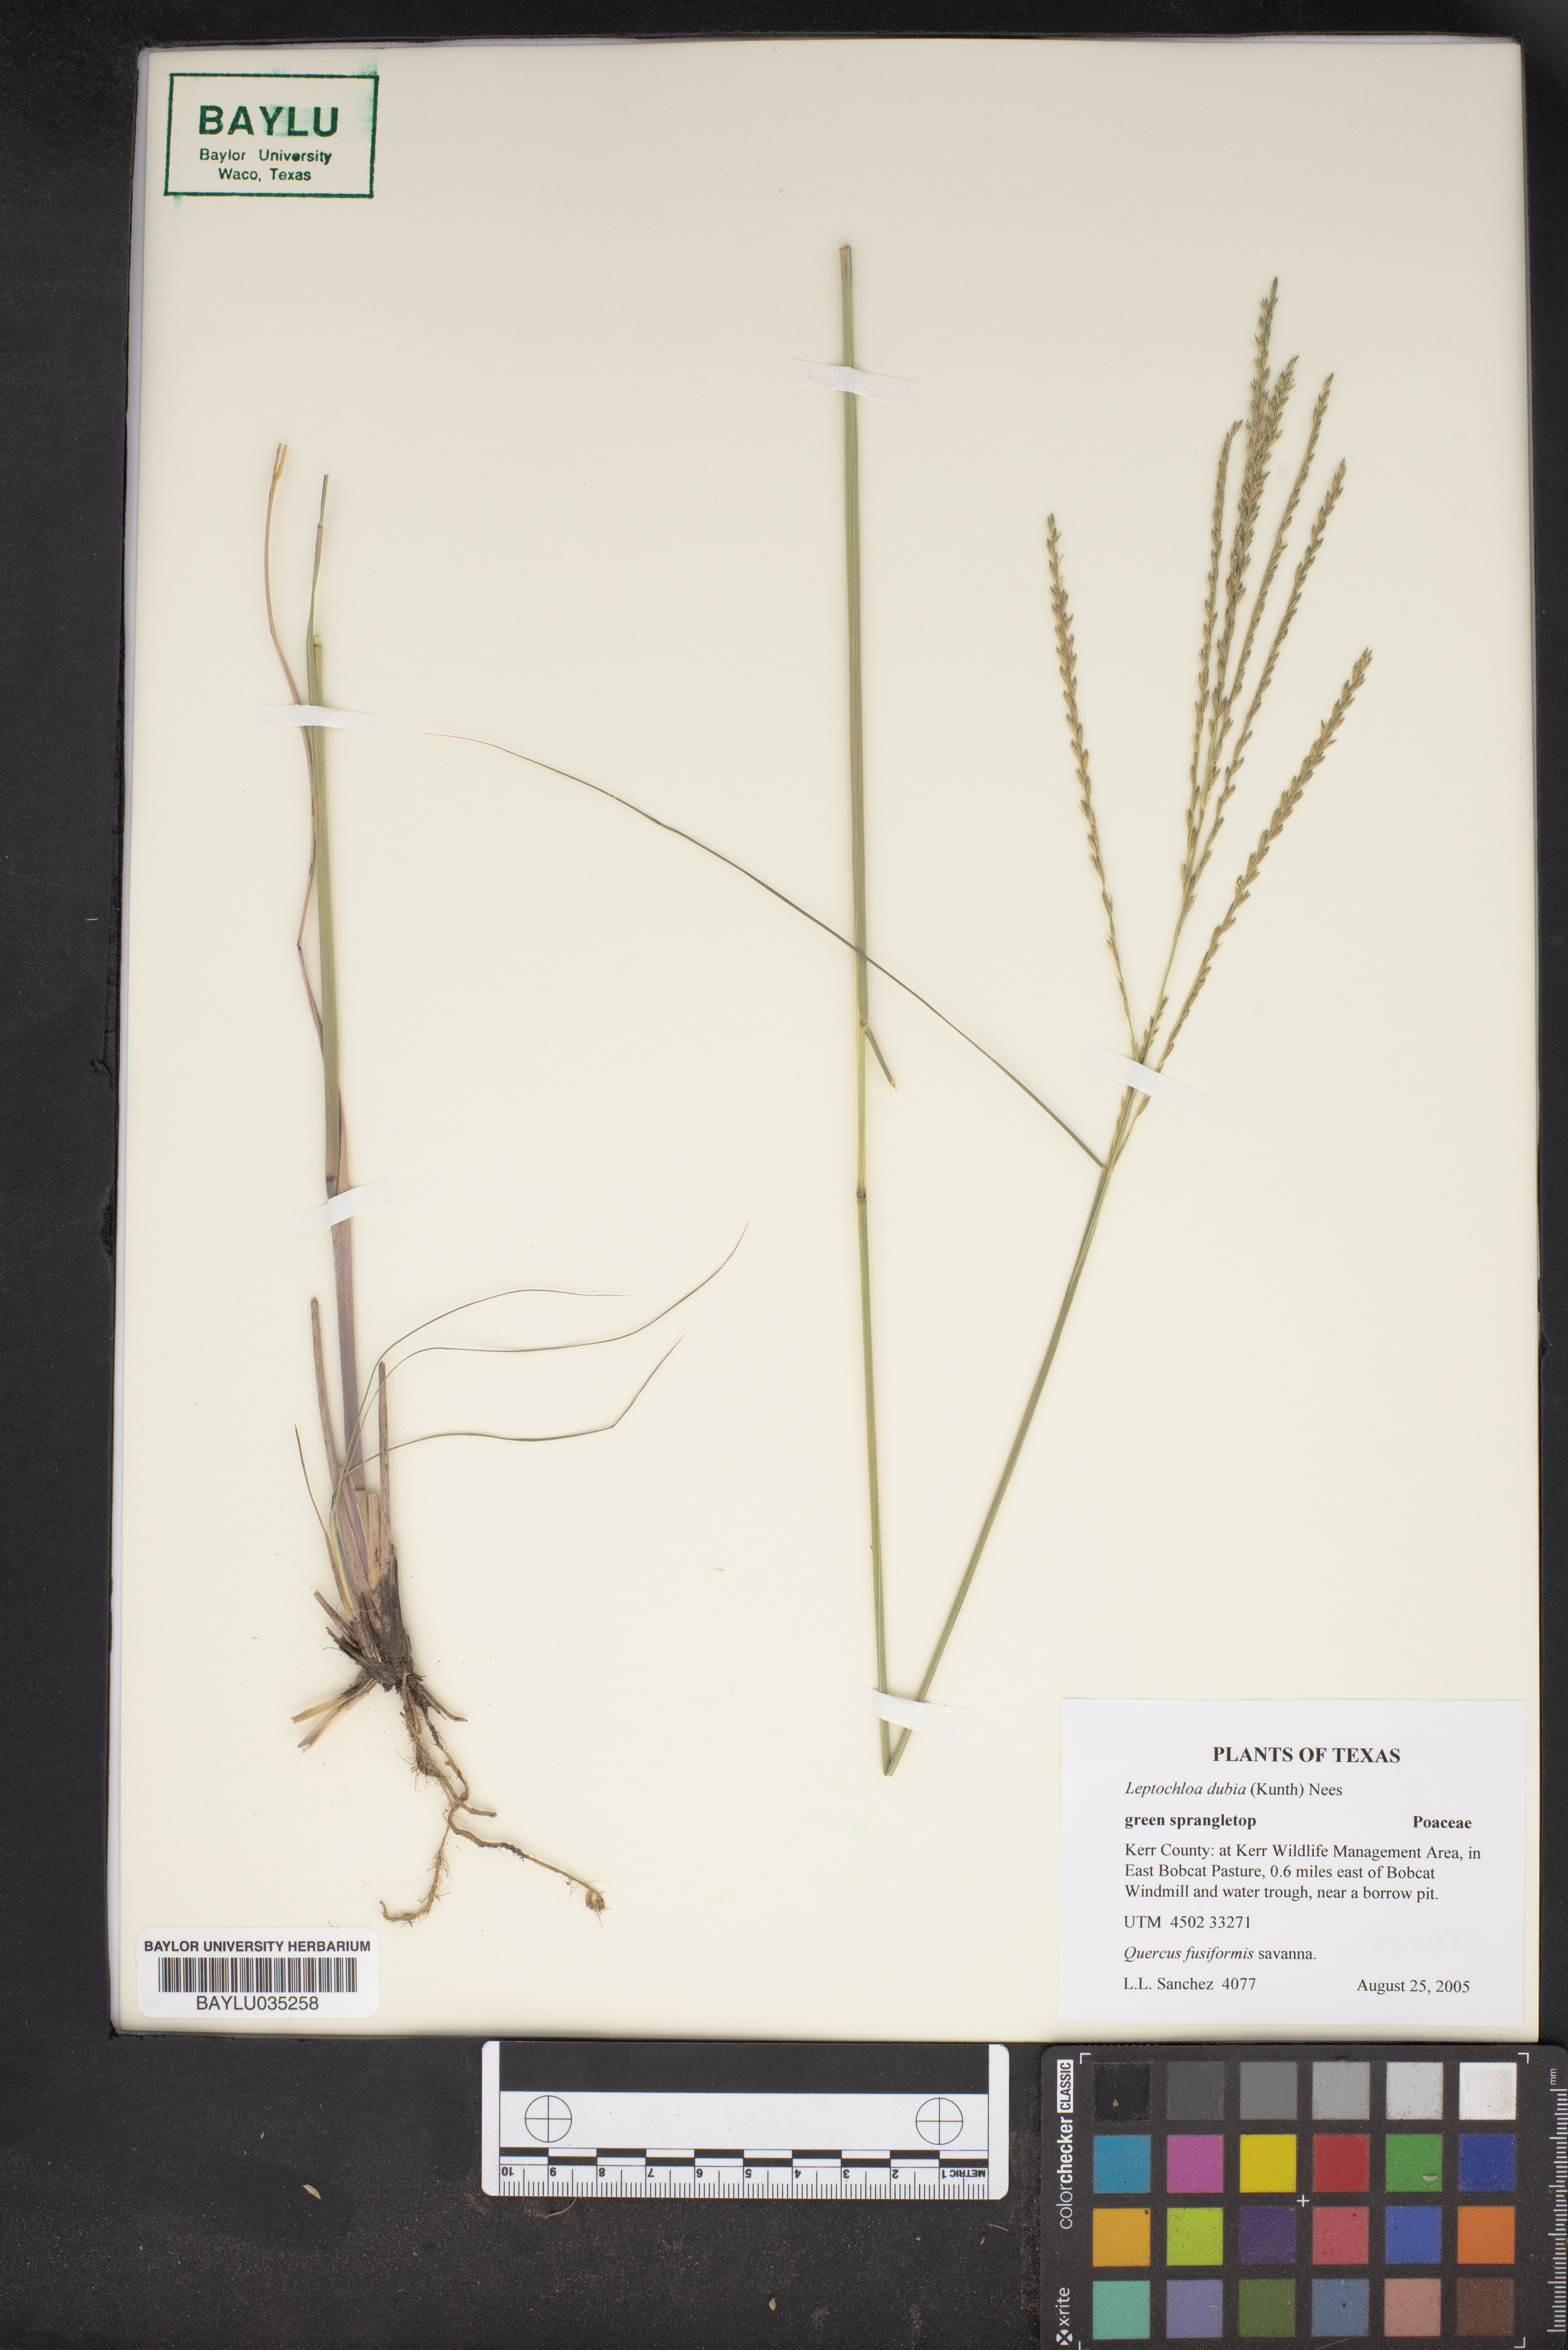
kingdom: Plantae
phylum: Tracheophyta
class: Liliopsida
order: Poales
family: Poaceae
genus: Disakisperma
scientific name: Disakisperma dubium
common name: Green sprangletop
